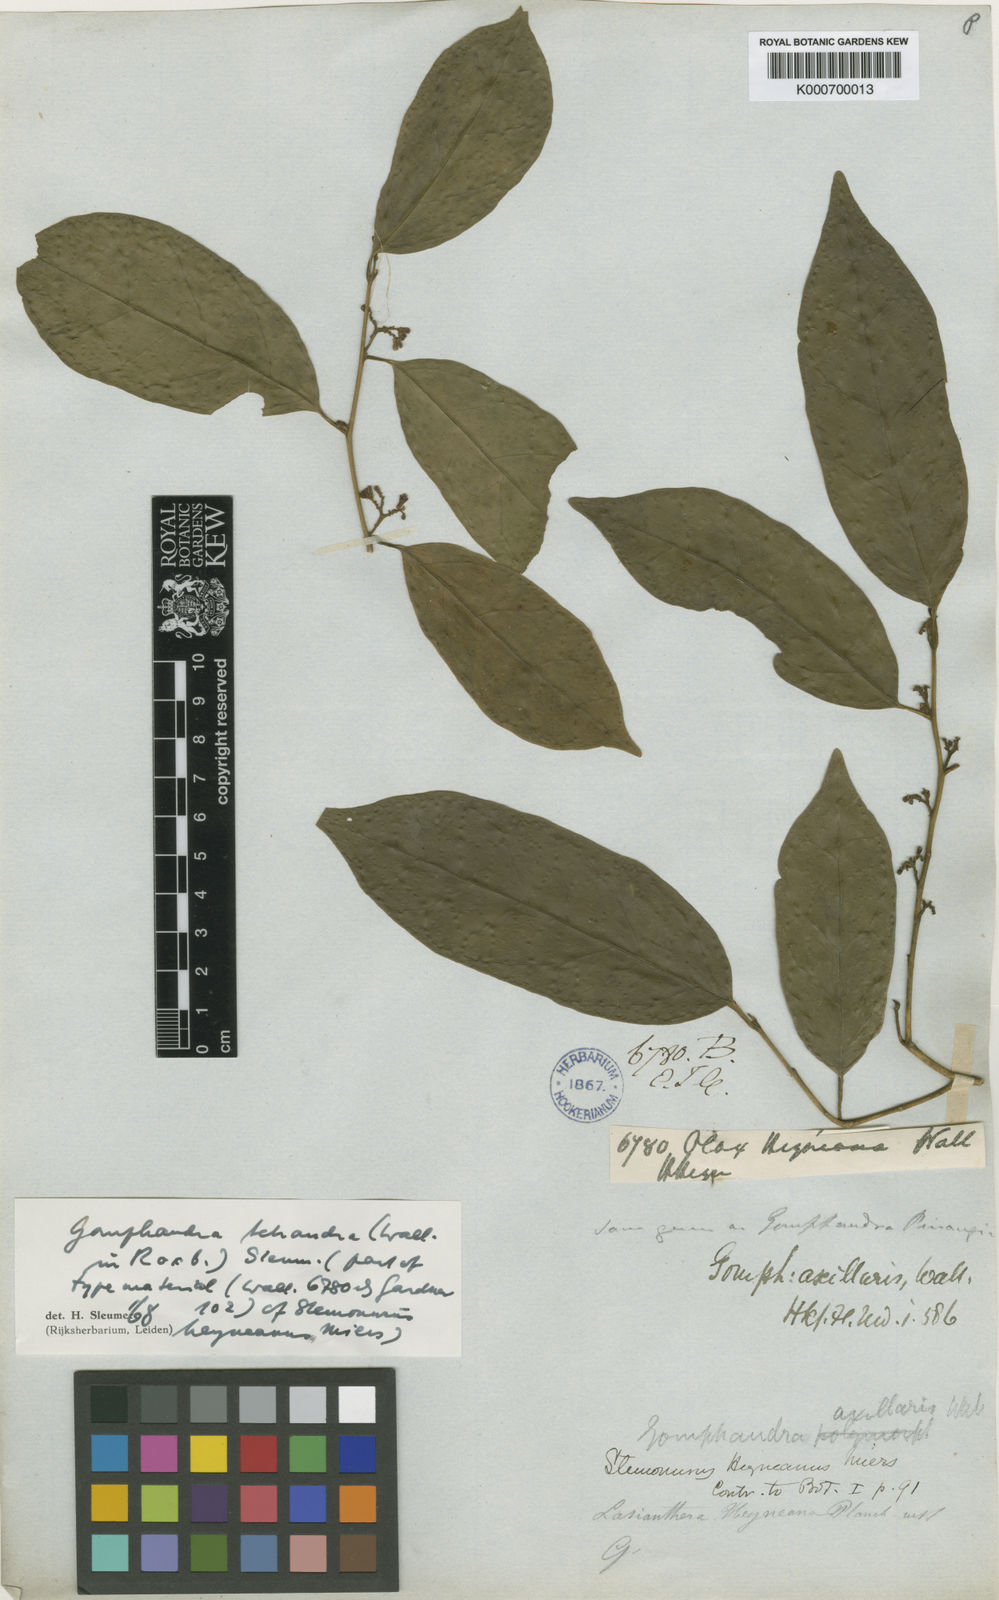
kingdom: Plantae
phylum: Tracheophyta
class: Magnoliopsida
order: Cardiopteridales
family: Stemonuraceae
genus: Gomphandra
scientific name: Gomphandra tetrandra
